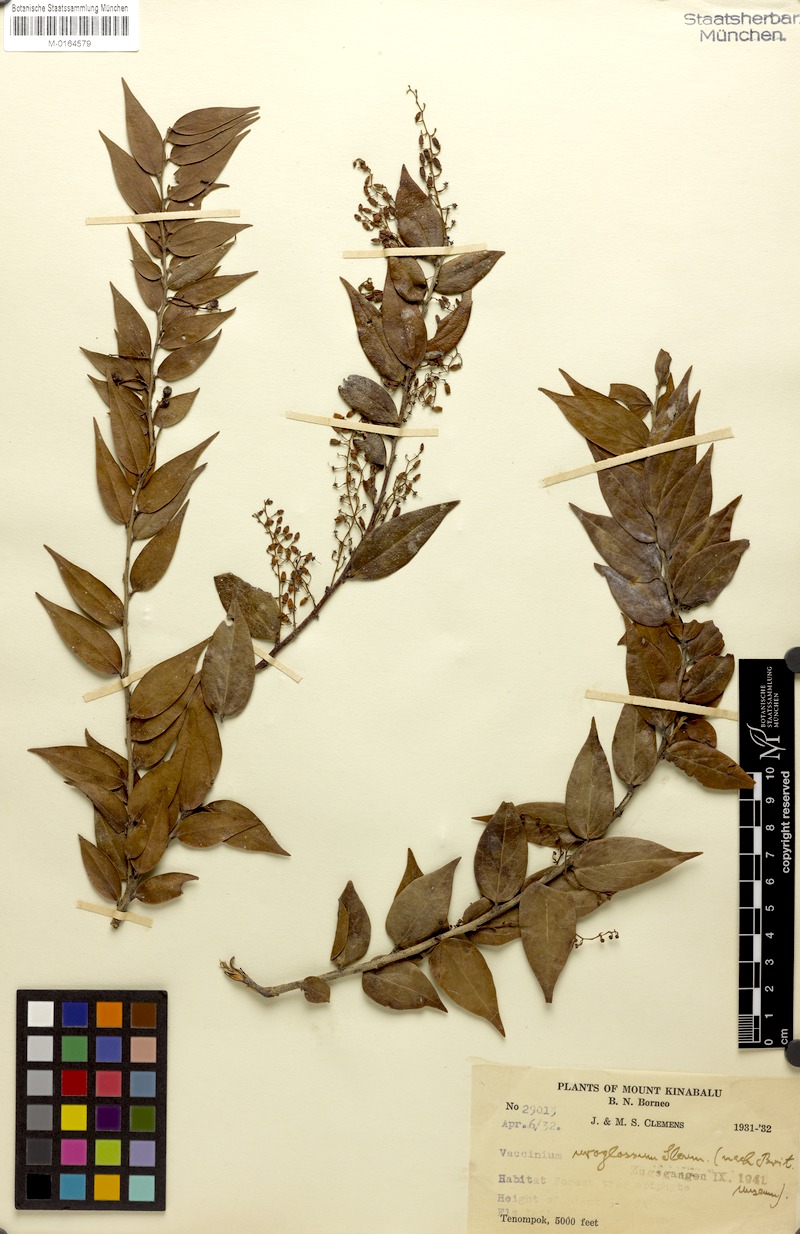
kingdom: Plantae
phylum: Tracheophyta
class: Magnoliopsida
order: Ericales
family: Ericaceae
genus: Rigiolepis
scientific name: Rigiolepis uroglossa
